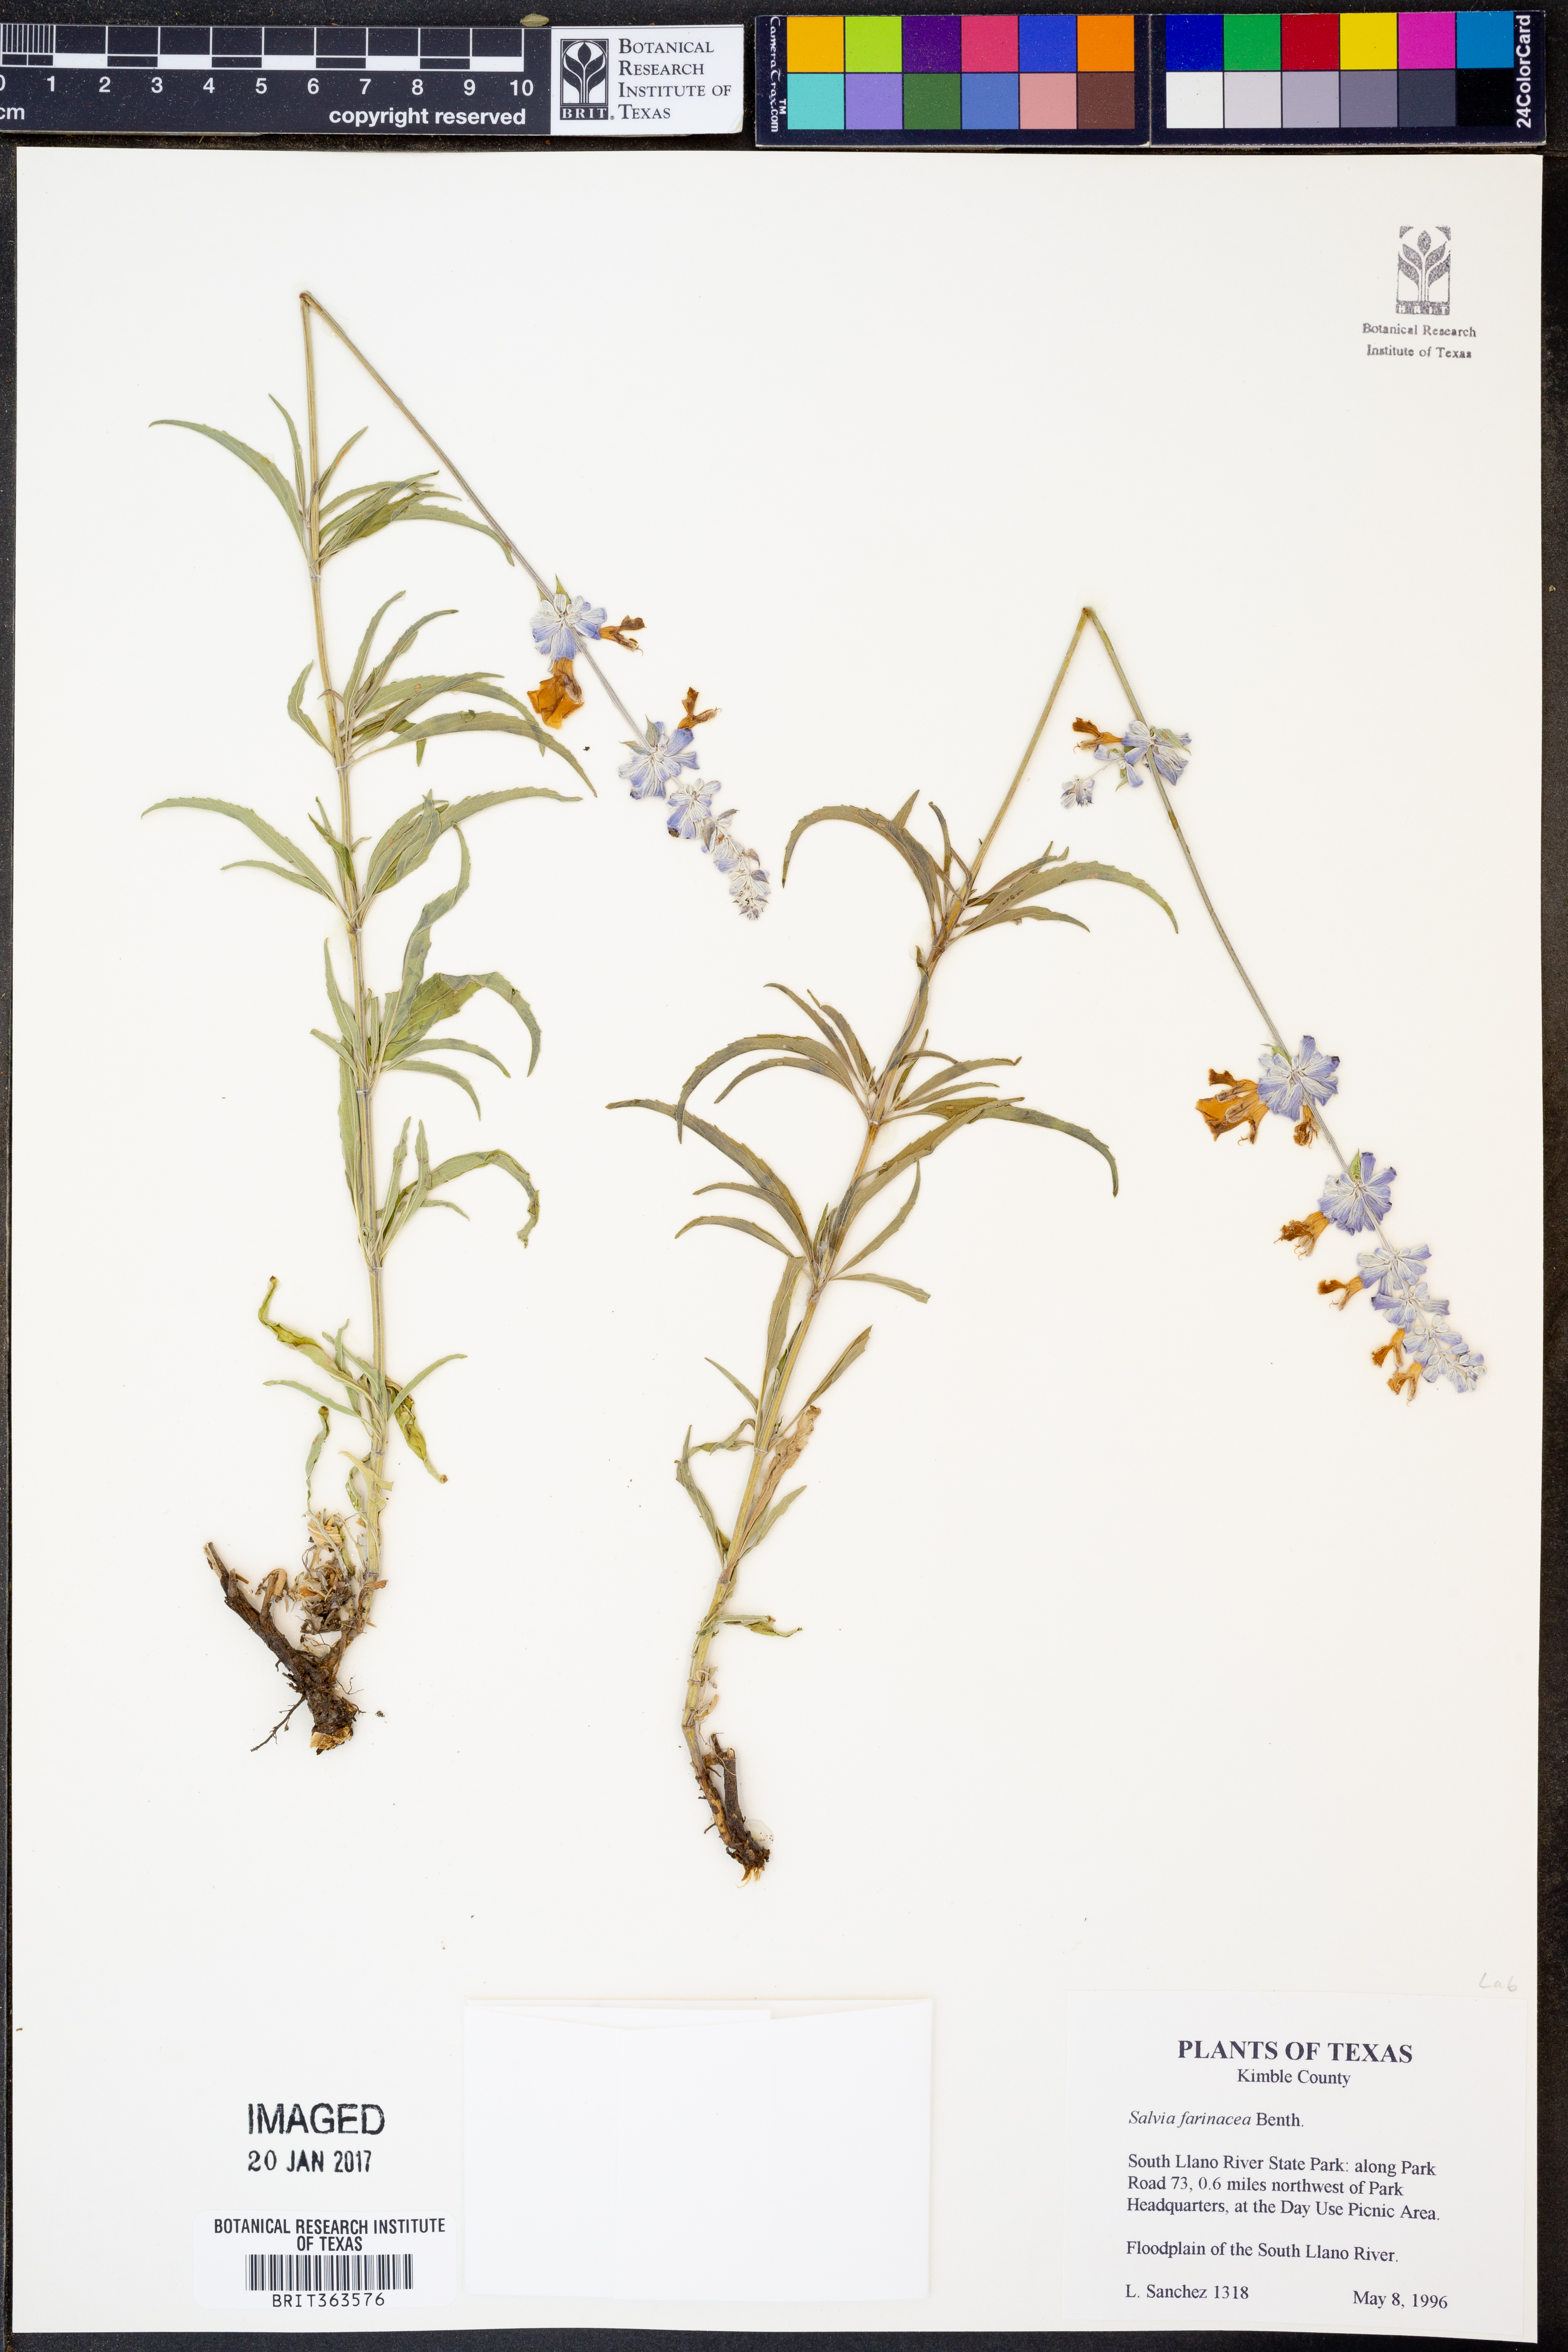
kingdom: Plantae
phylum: Tracheophyta
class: Magnoliopsida
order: Lamiales
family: Lamiaceae
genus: Salvia
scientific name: Salvia farinacea
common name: Mealy sage
